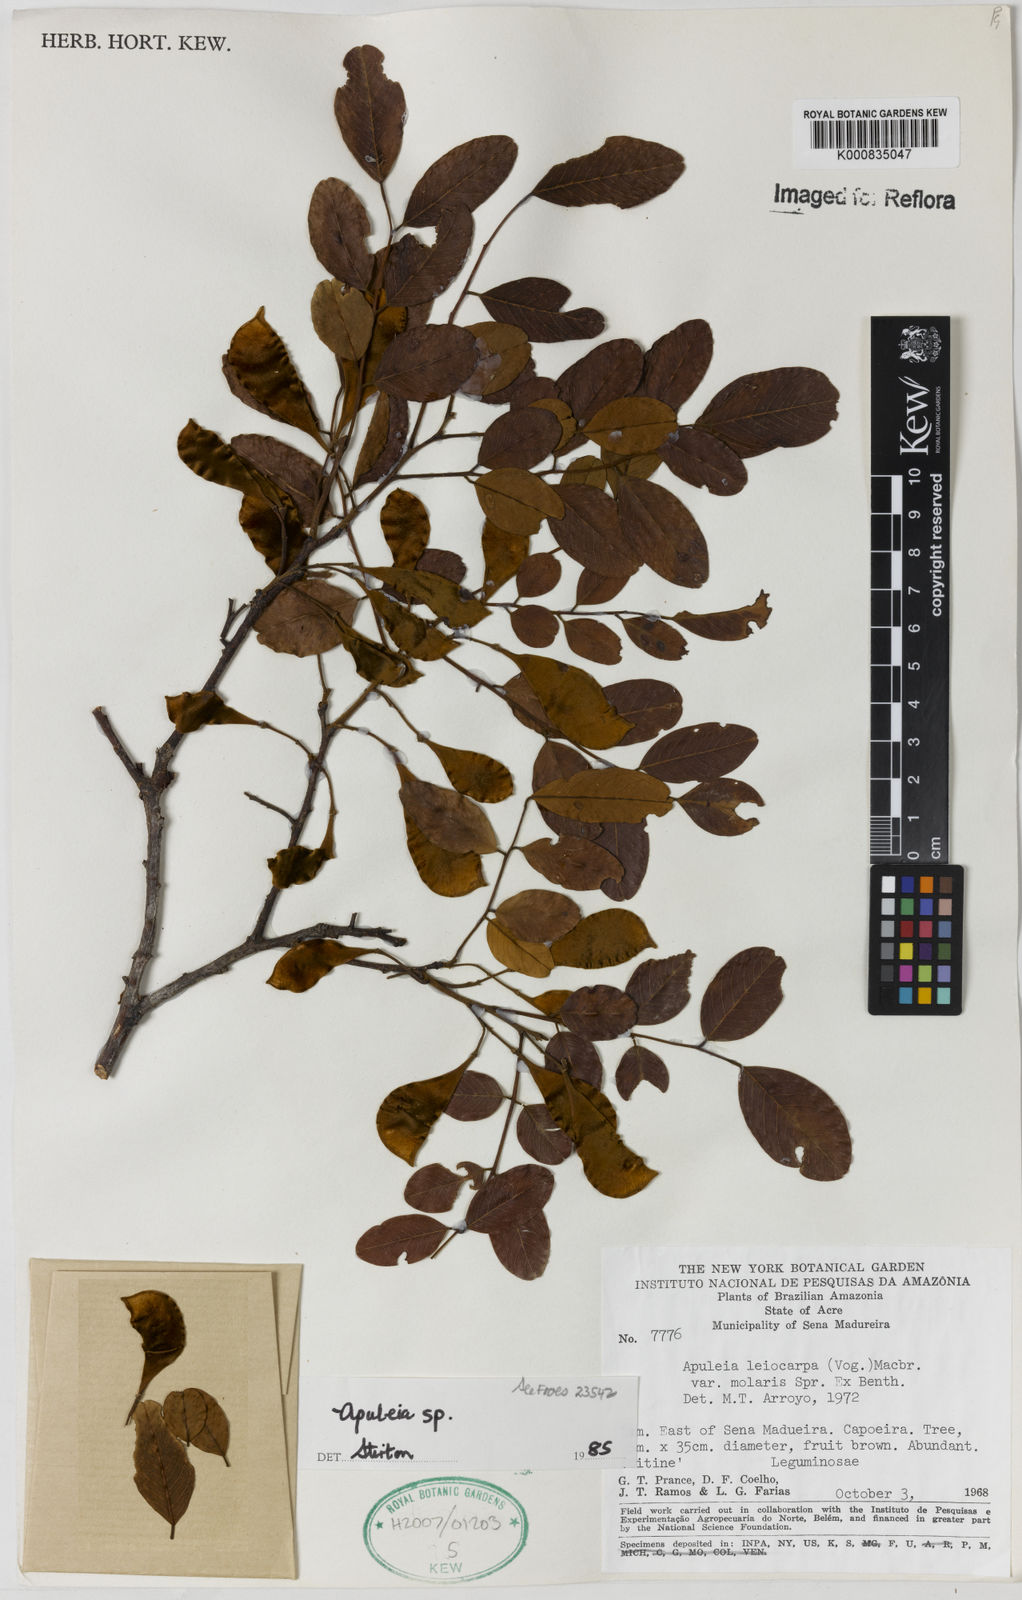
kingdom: Plantae
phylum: Tracheophyta
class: Magnoliopsida
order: Asterales
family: Asteraceae
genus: Berkheya
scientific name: Berkheya
